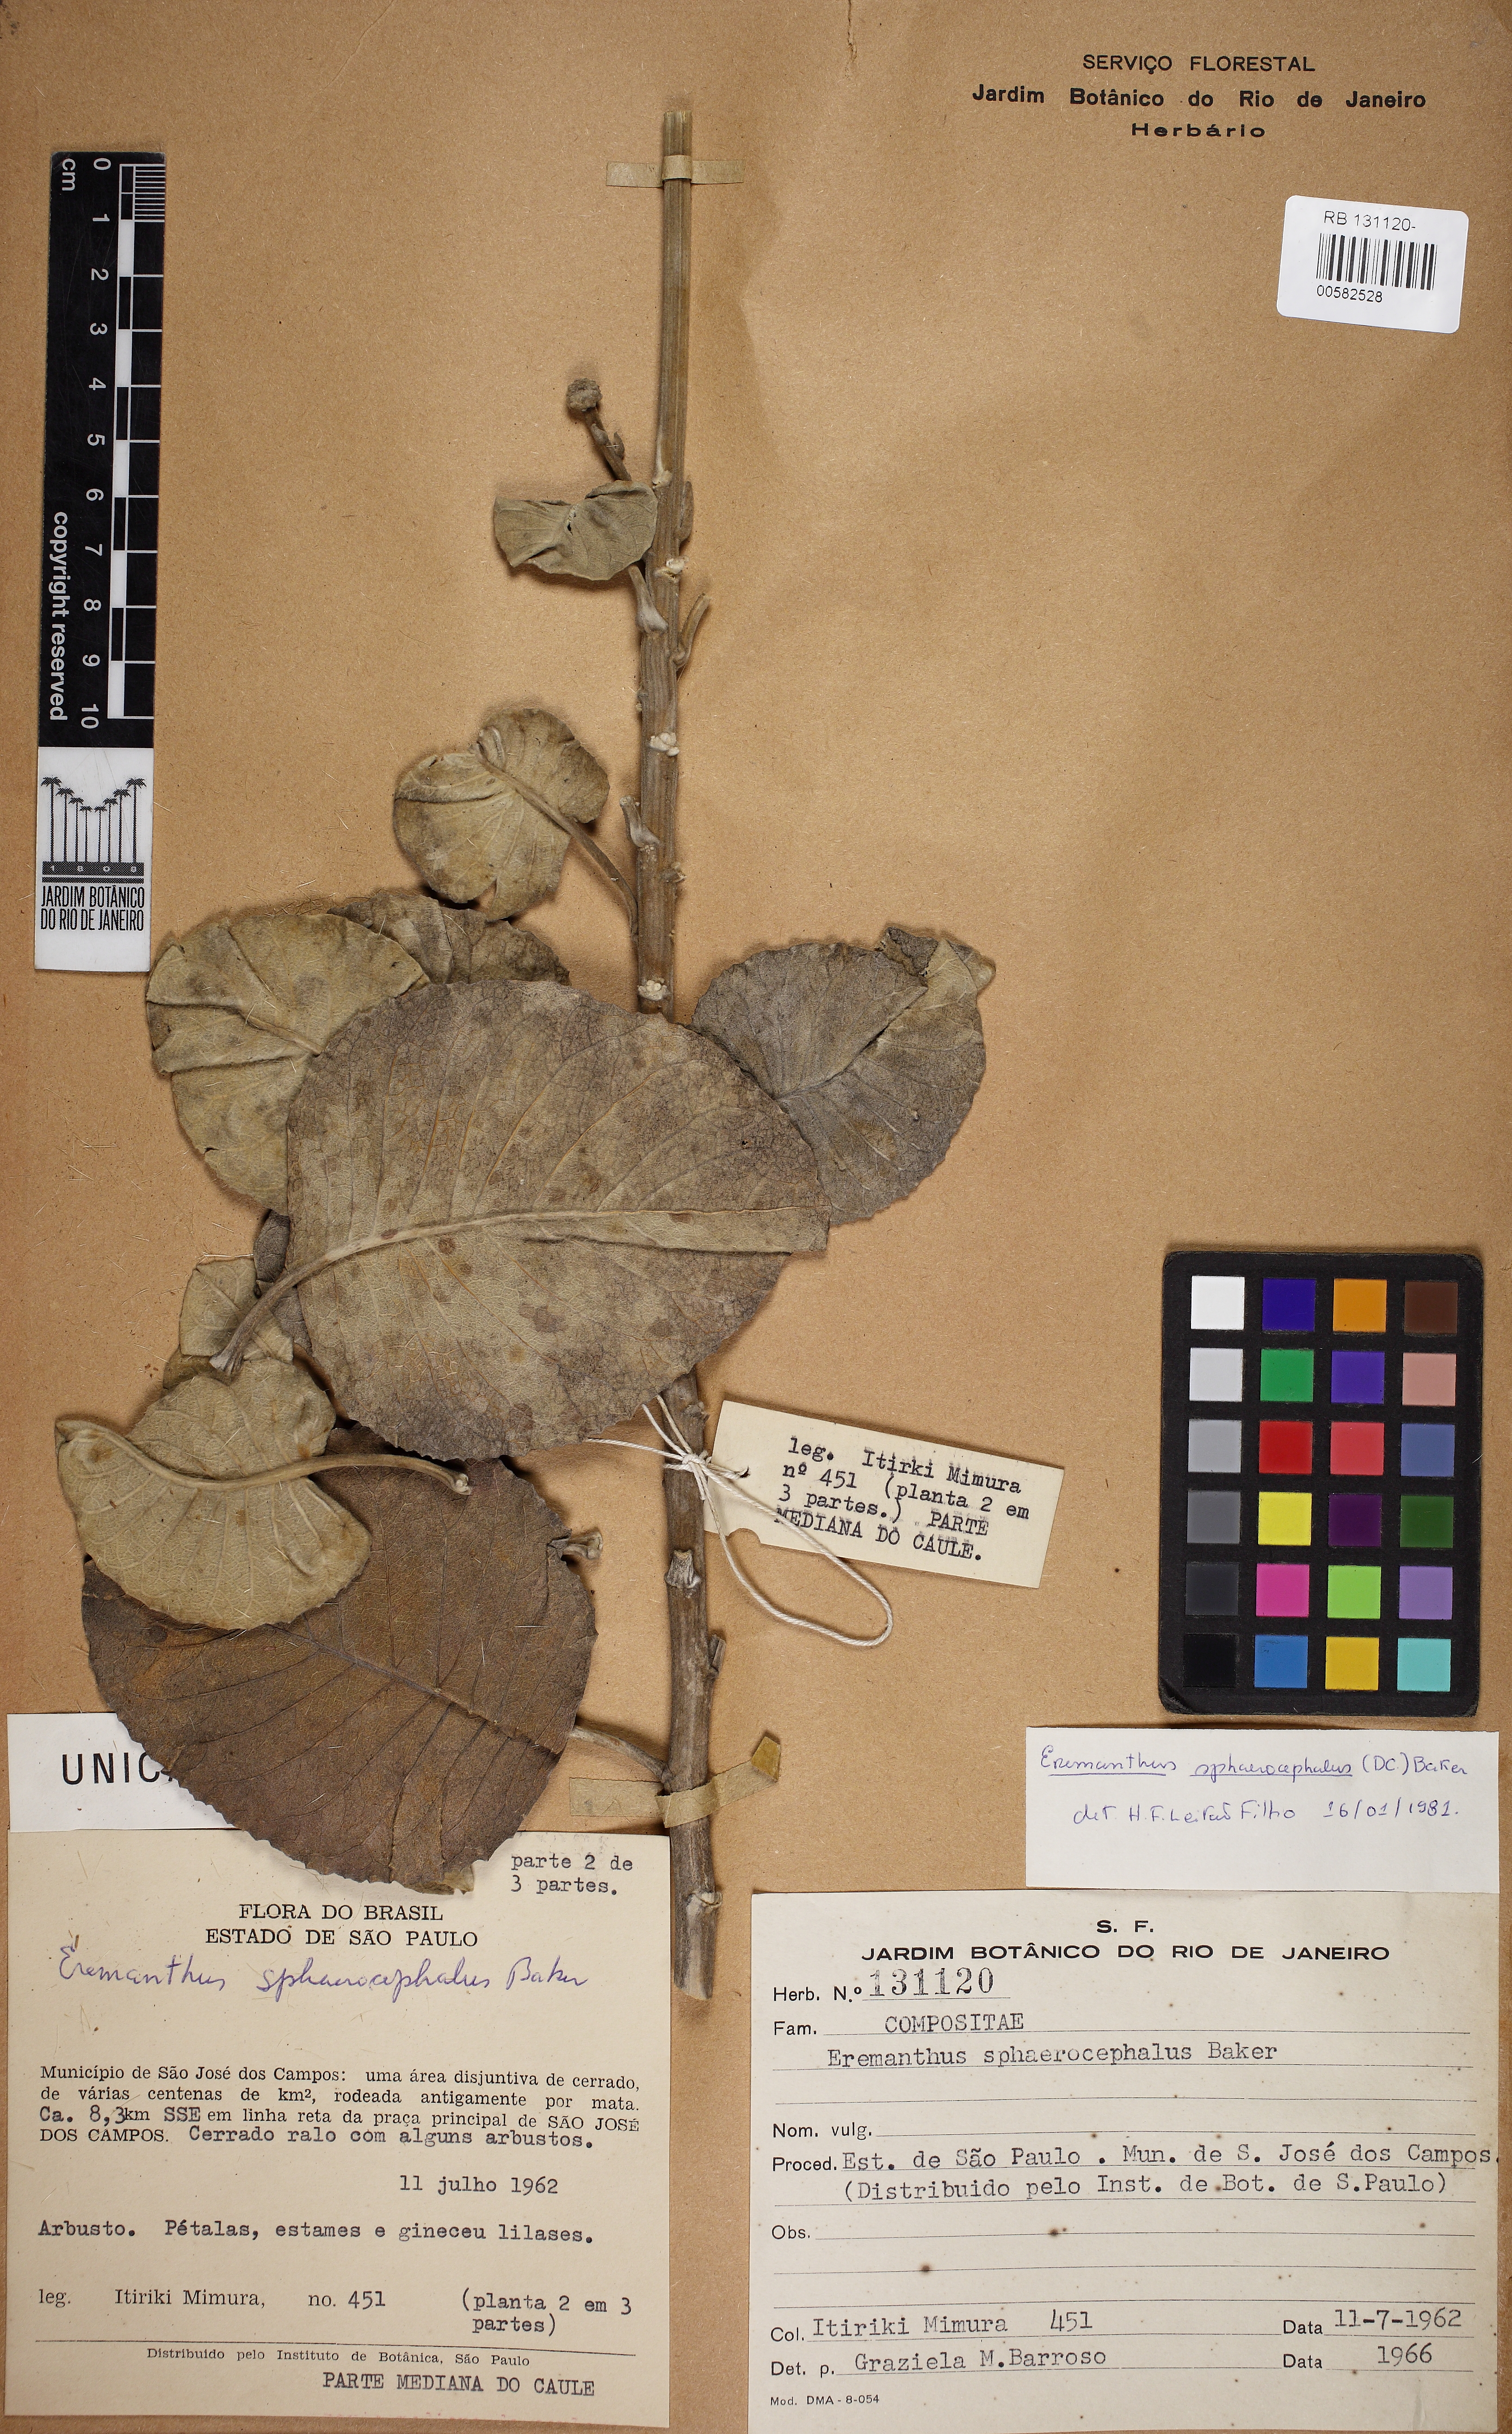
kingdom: Plantae
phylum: Tracheophyta
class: Magnoliopsida
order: Asterales
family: Asteraceae
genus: Chresta
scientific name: Chresta sphaerocephala
